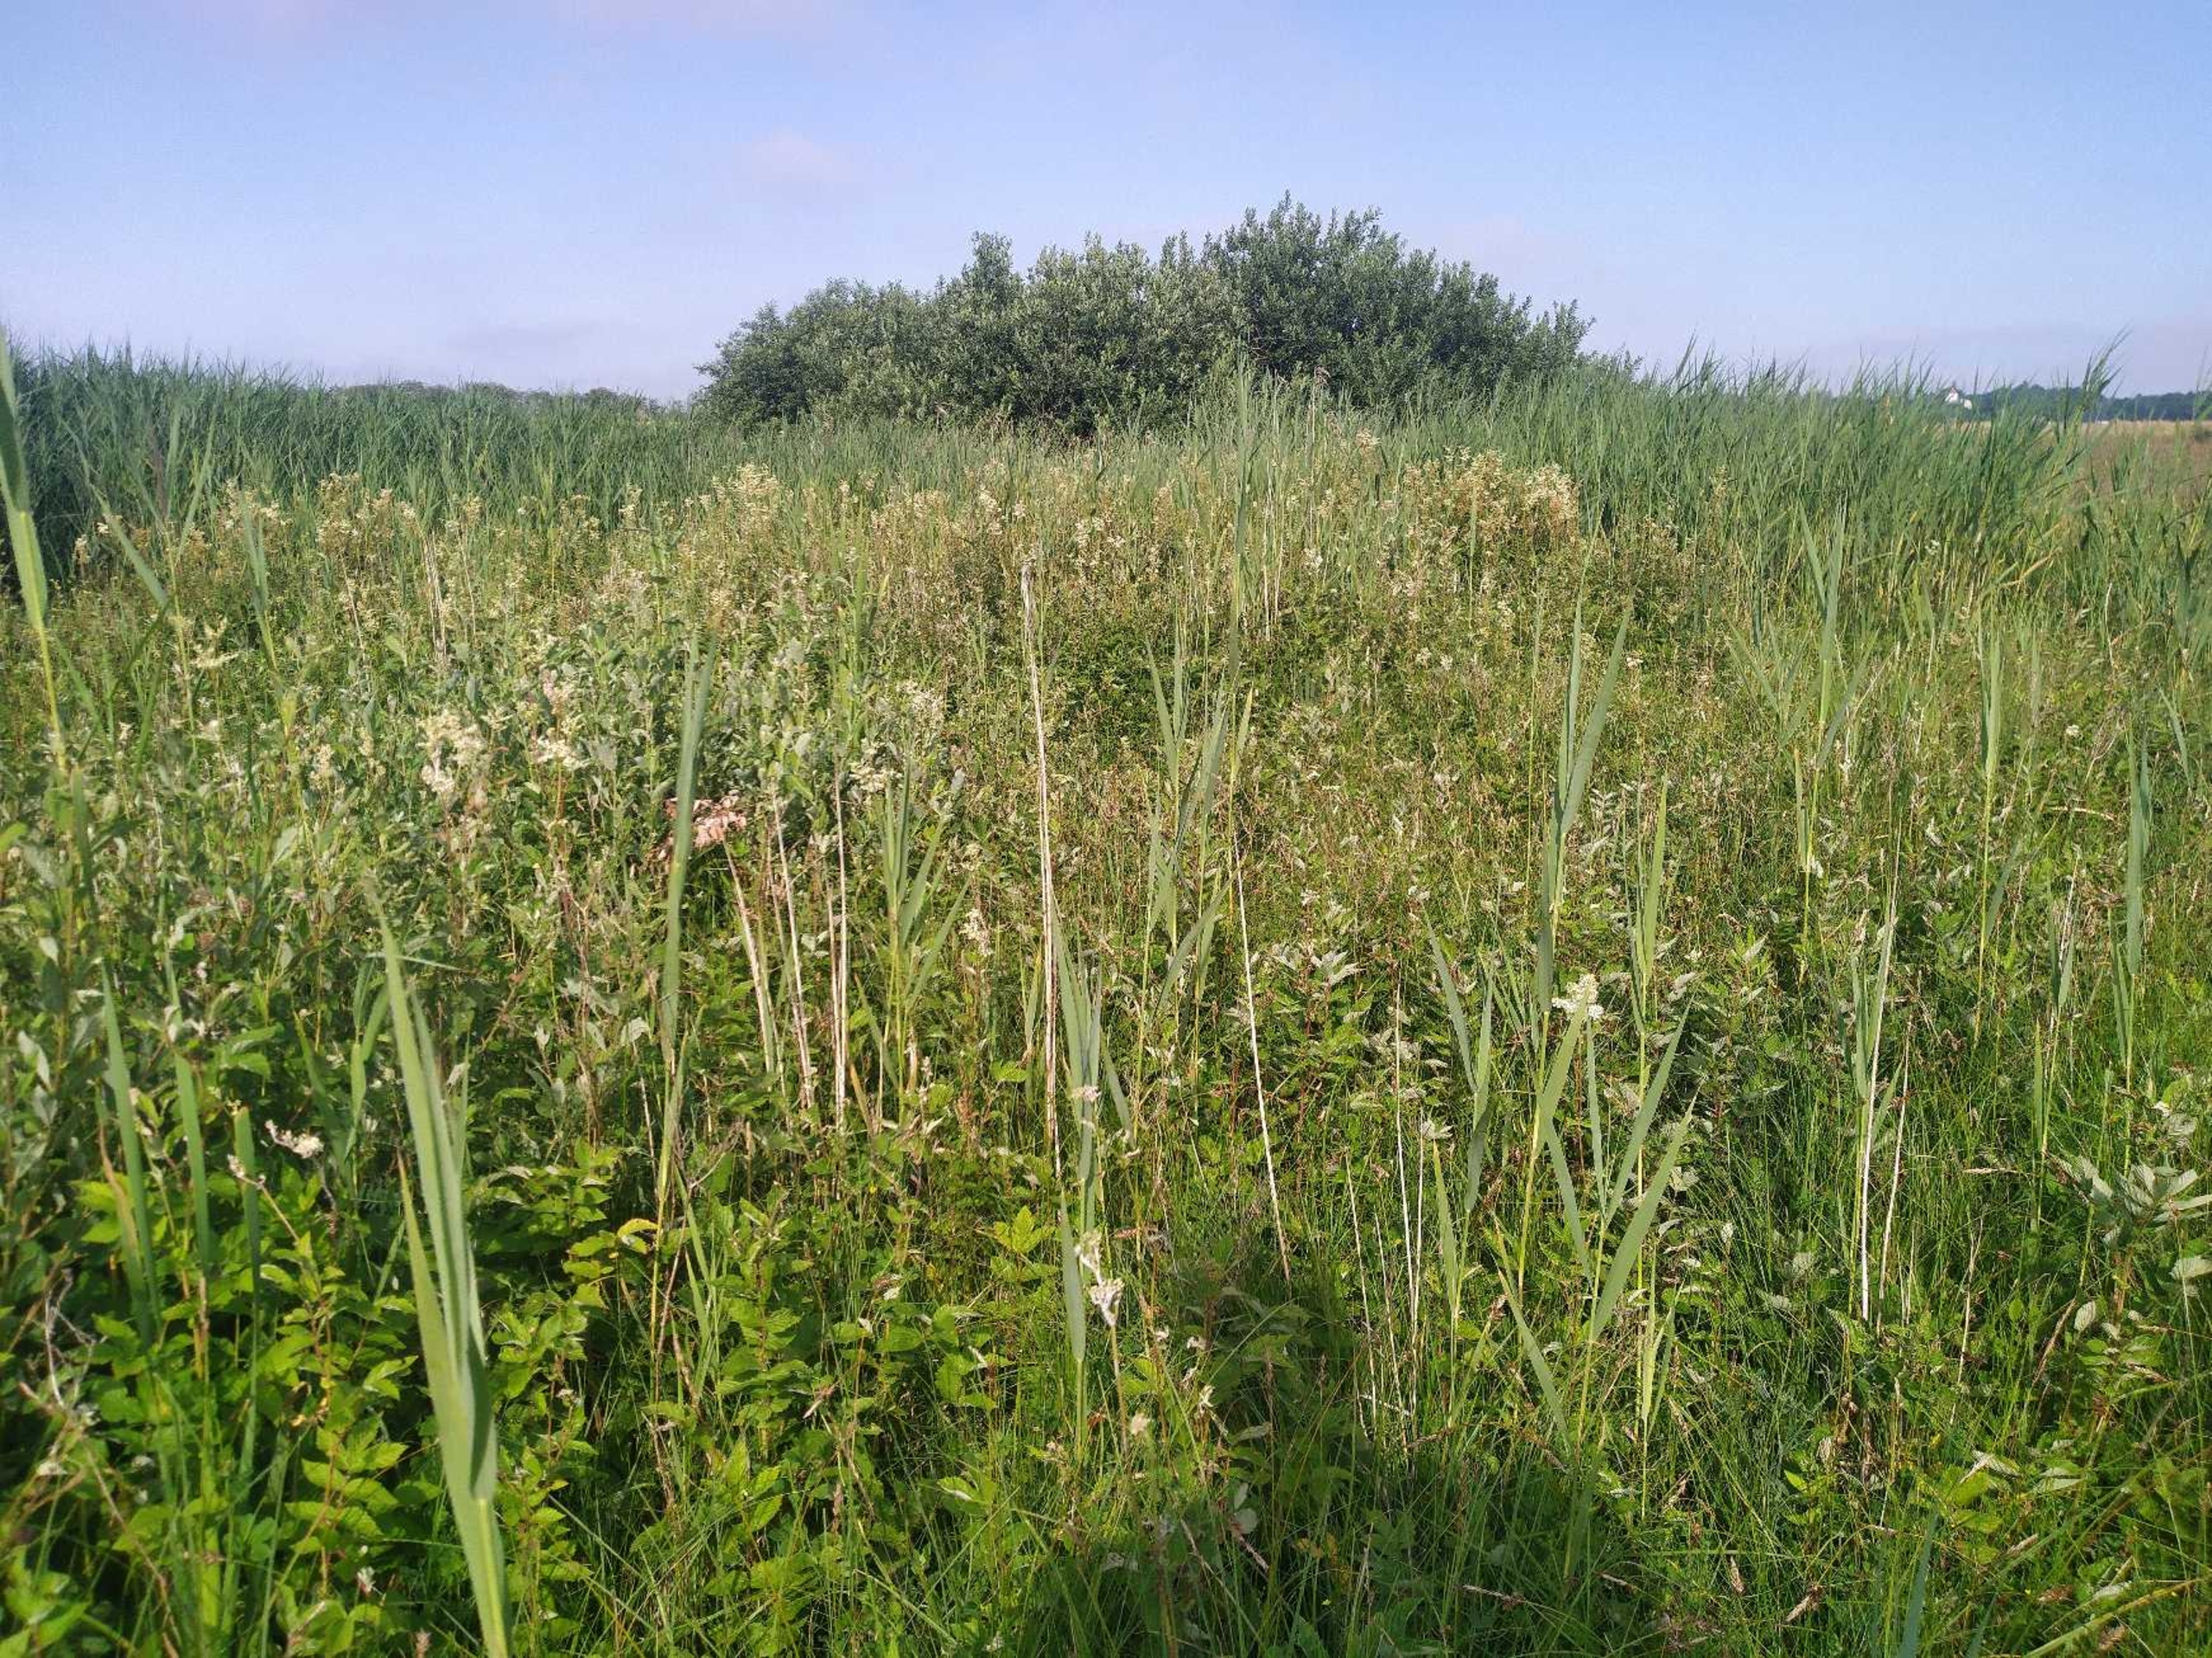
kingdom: Plantae
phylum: Tracheophyta
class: Liliopsida
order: Poales
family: Cyperaceae
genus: Carex
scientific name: Carex panicea
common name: Hirse-star
